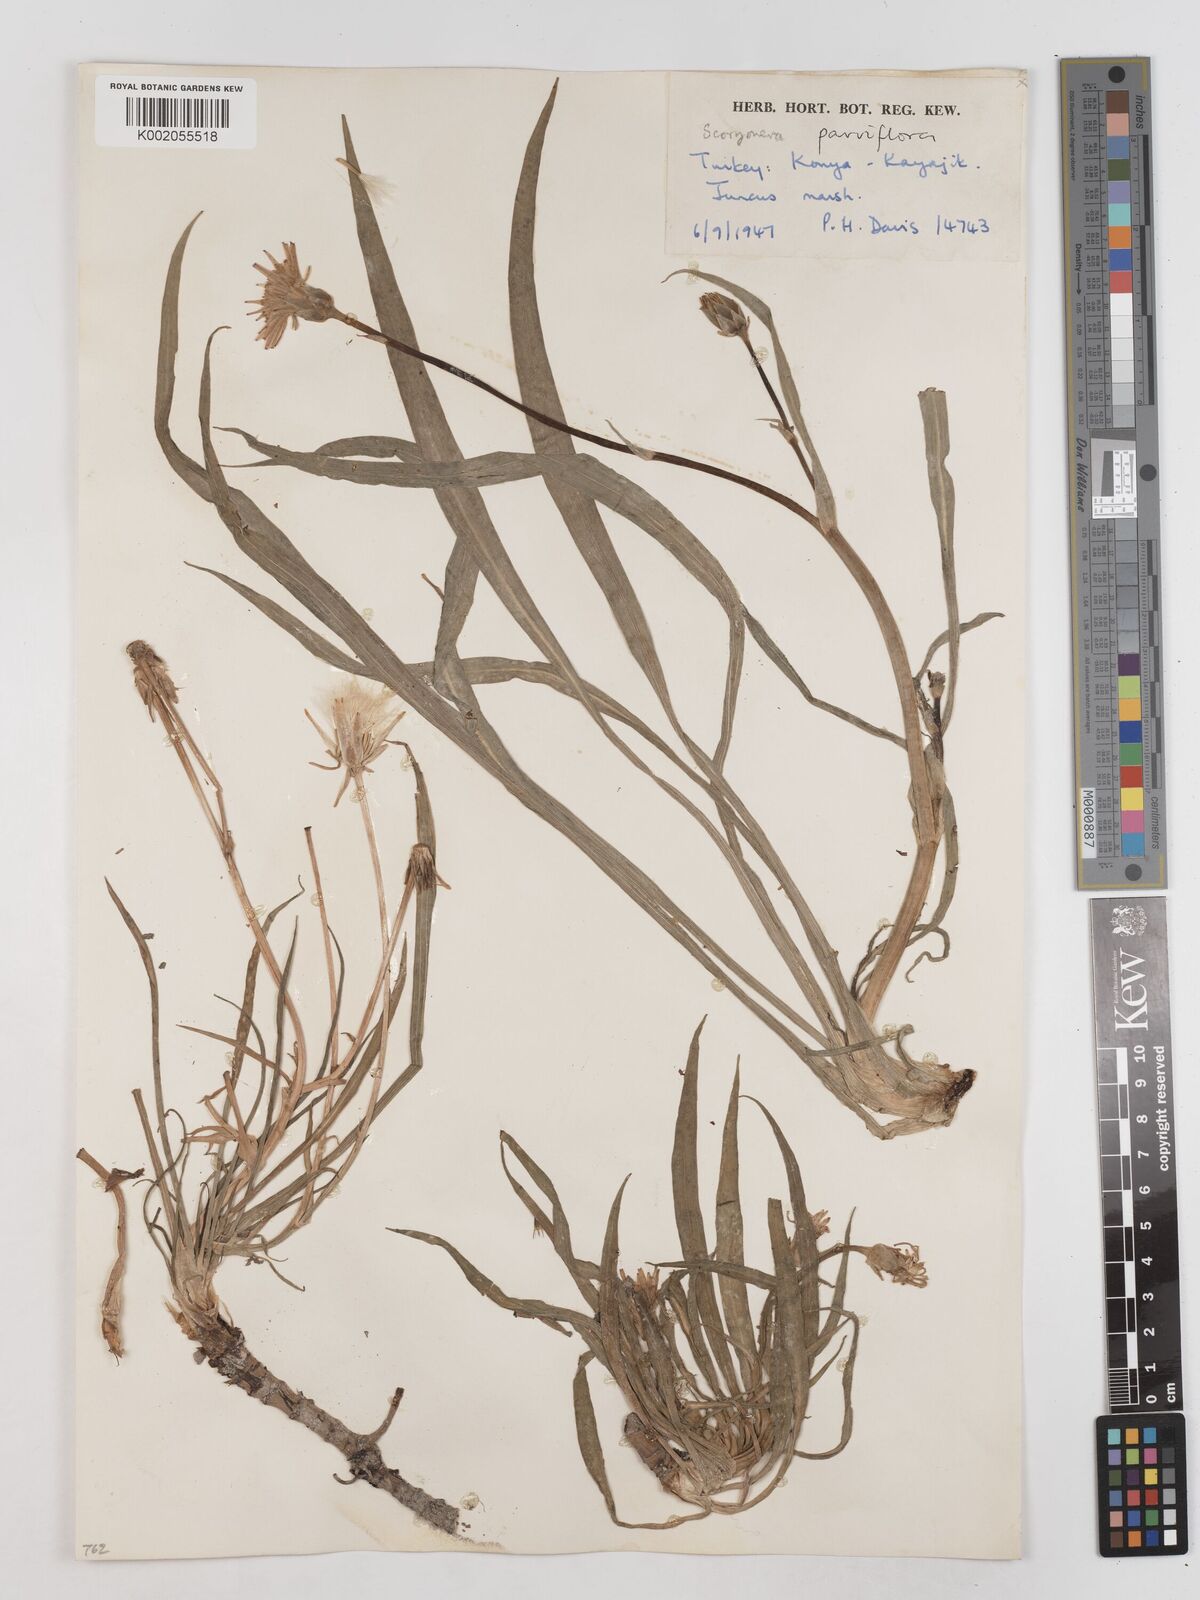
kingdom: Plantae
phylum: Tracheophyta
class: Magnoliopsida
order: Asterales
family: Asteraceae
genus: Scorzonera
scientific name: Scorzonera parviflora
